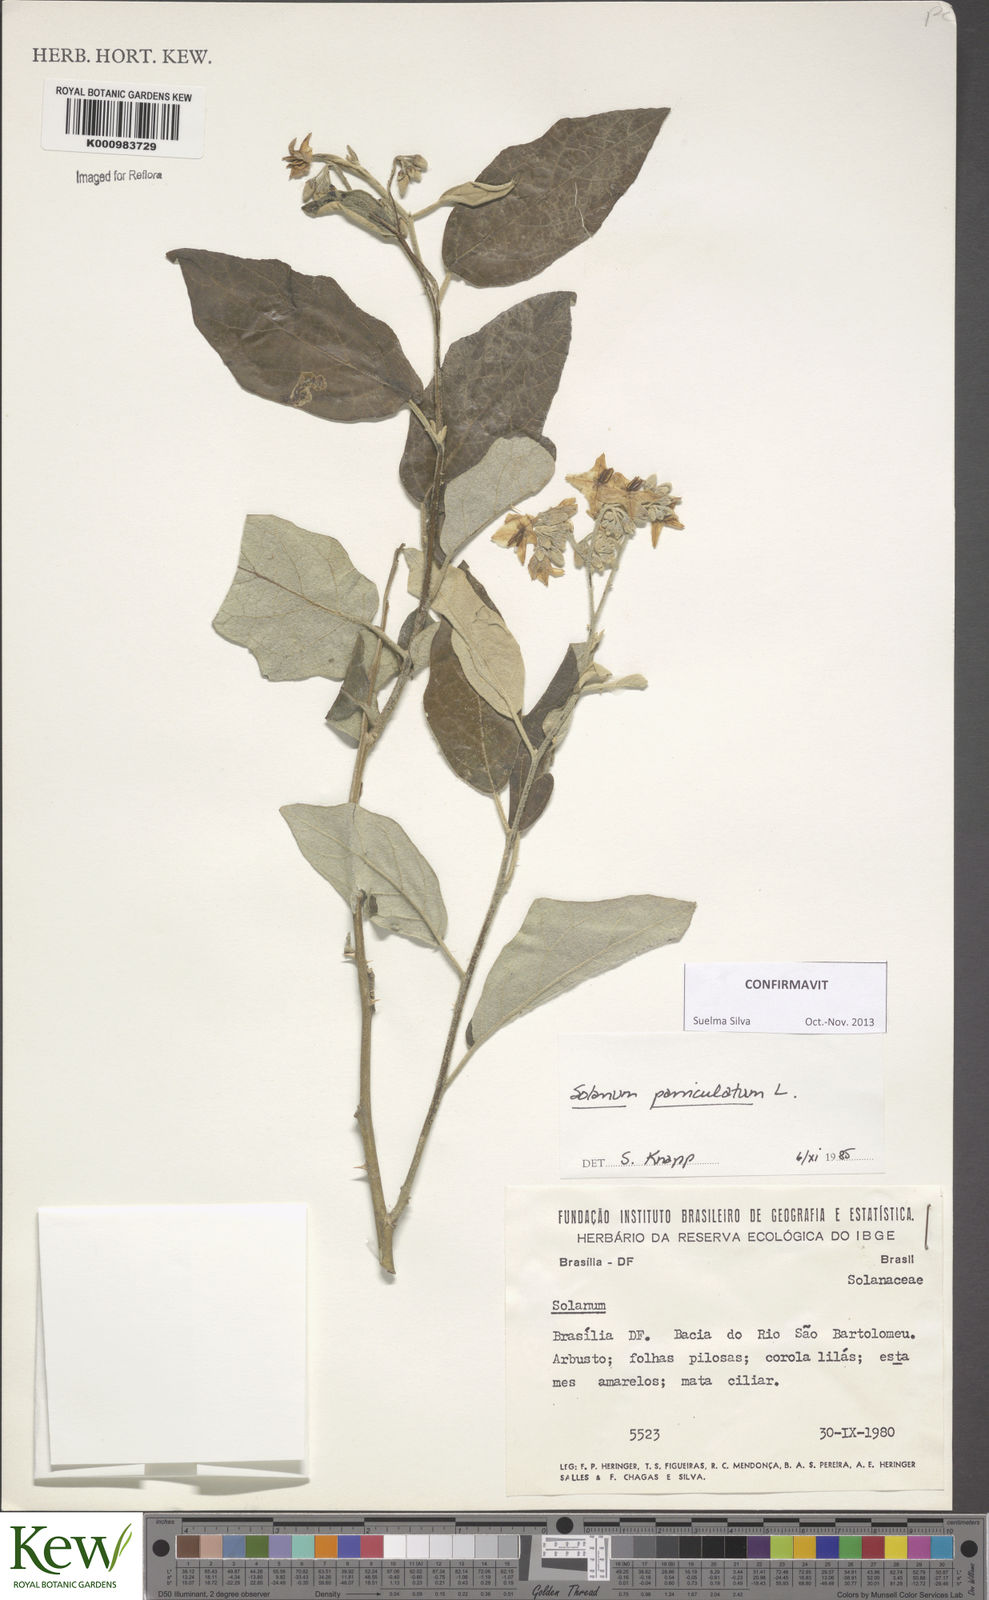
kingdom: Plantae
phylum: Tracheophyta
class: Magnoliopsida
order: Solanales
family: Solanaceae
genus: Solanum
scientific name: Solanum paniculatum
